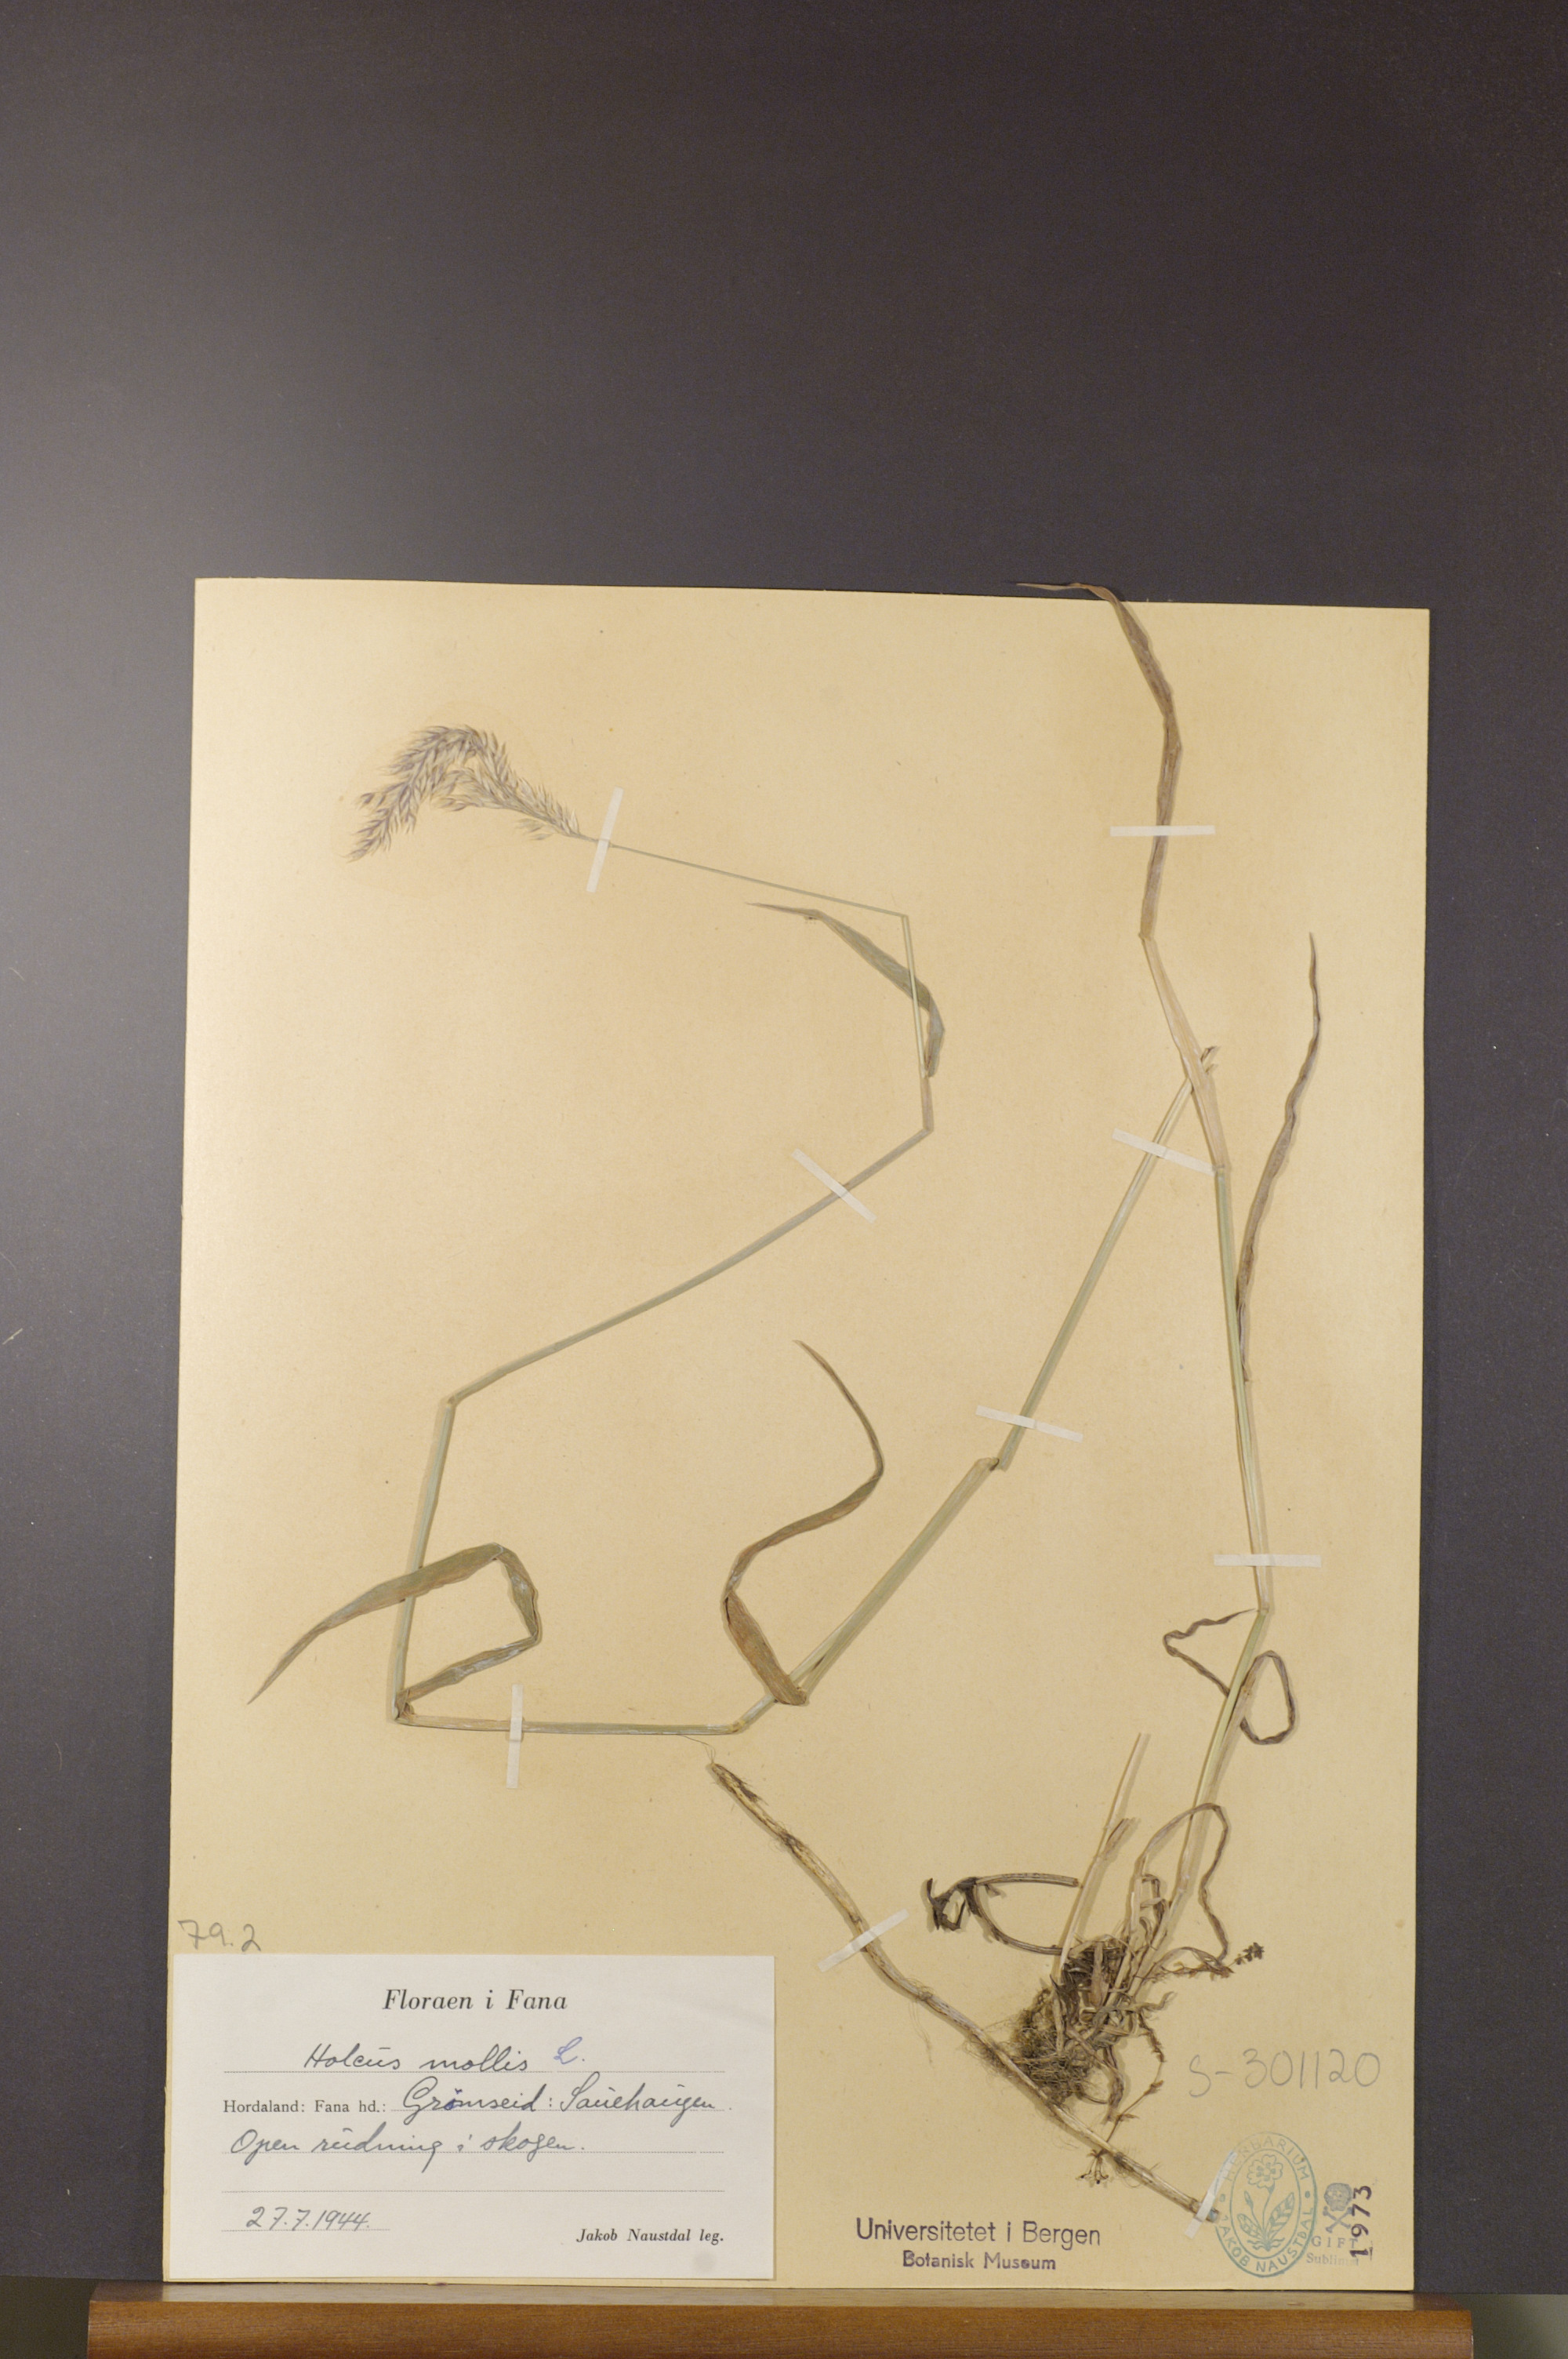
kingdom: Plantae
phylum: Tracheophyta
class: Liliopsida
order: Poales
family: Poaceae
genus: Holcus
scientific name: Holcus mollis
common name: Creeping velvetgrass
